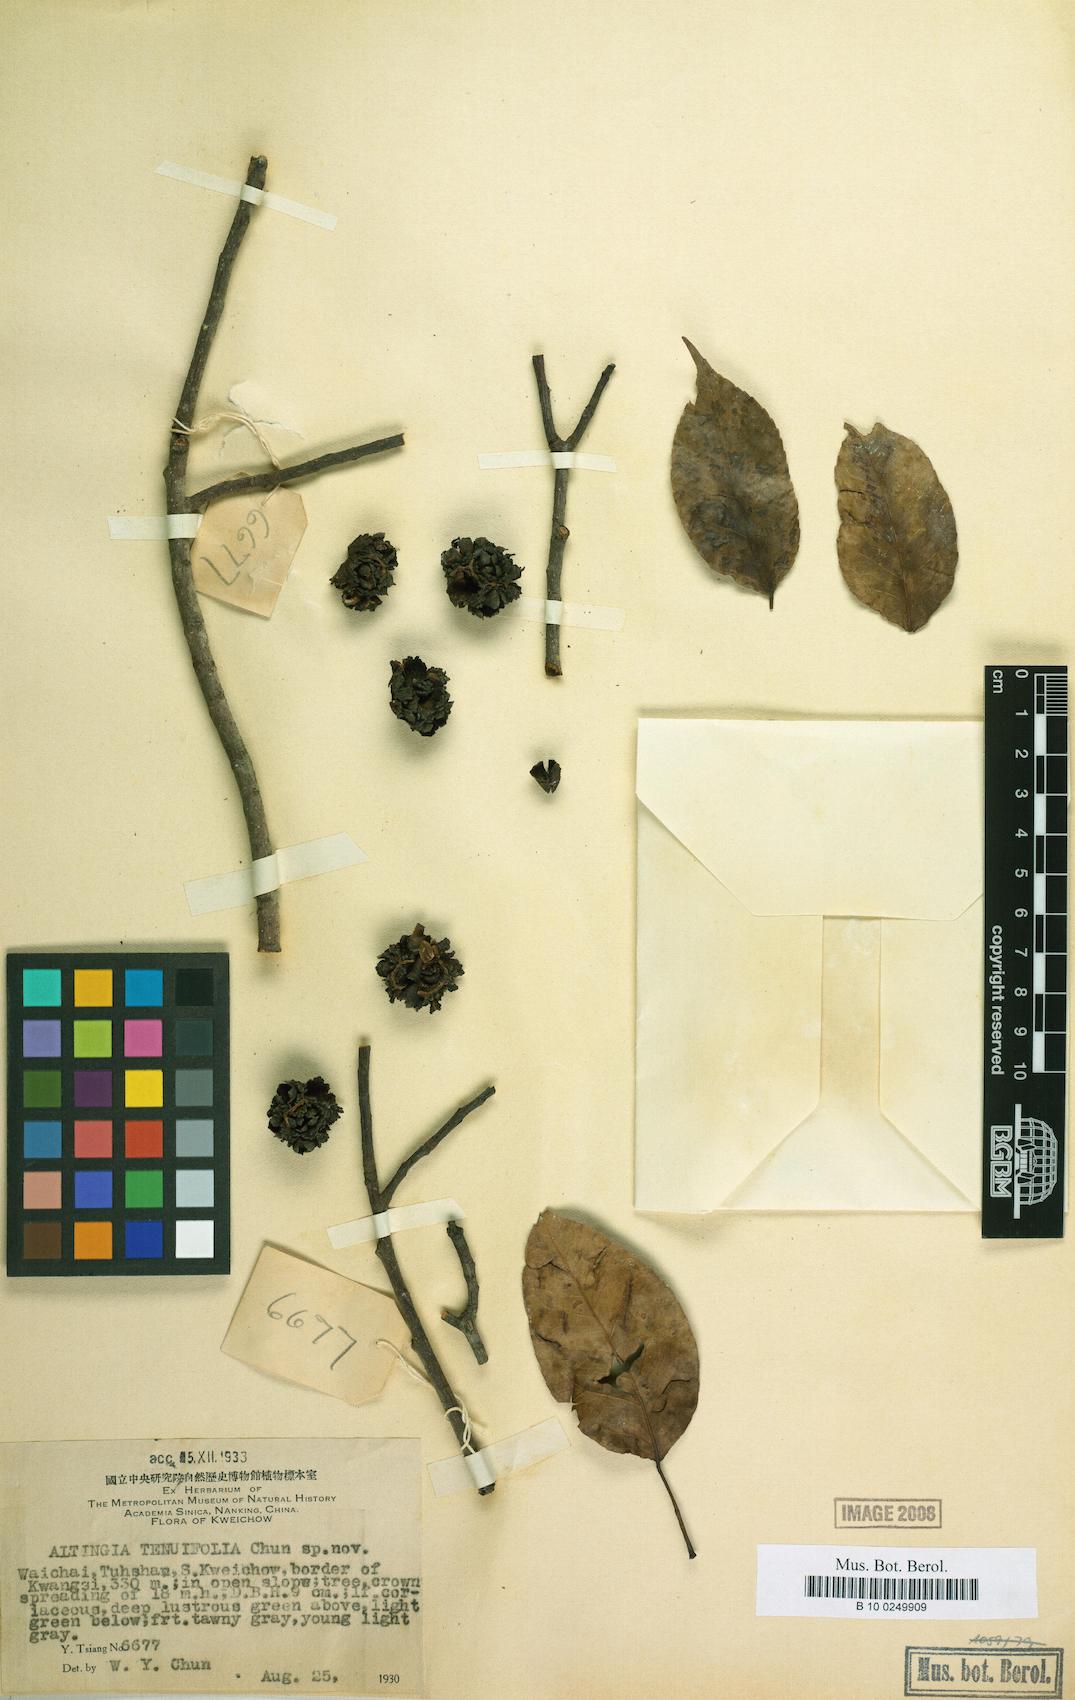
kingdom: Plantae
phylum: Tracheophyta
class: Magnoliopsida
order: Saxifragales
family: Altingiaceae
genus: Liquidambar
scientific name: Liquidambar siamensis
